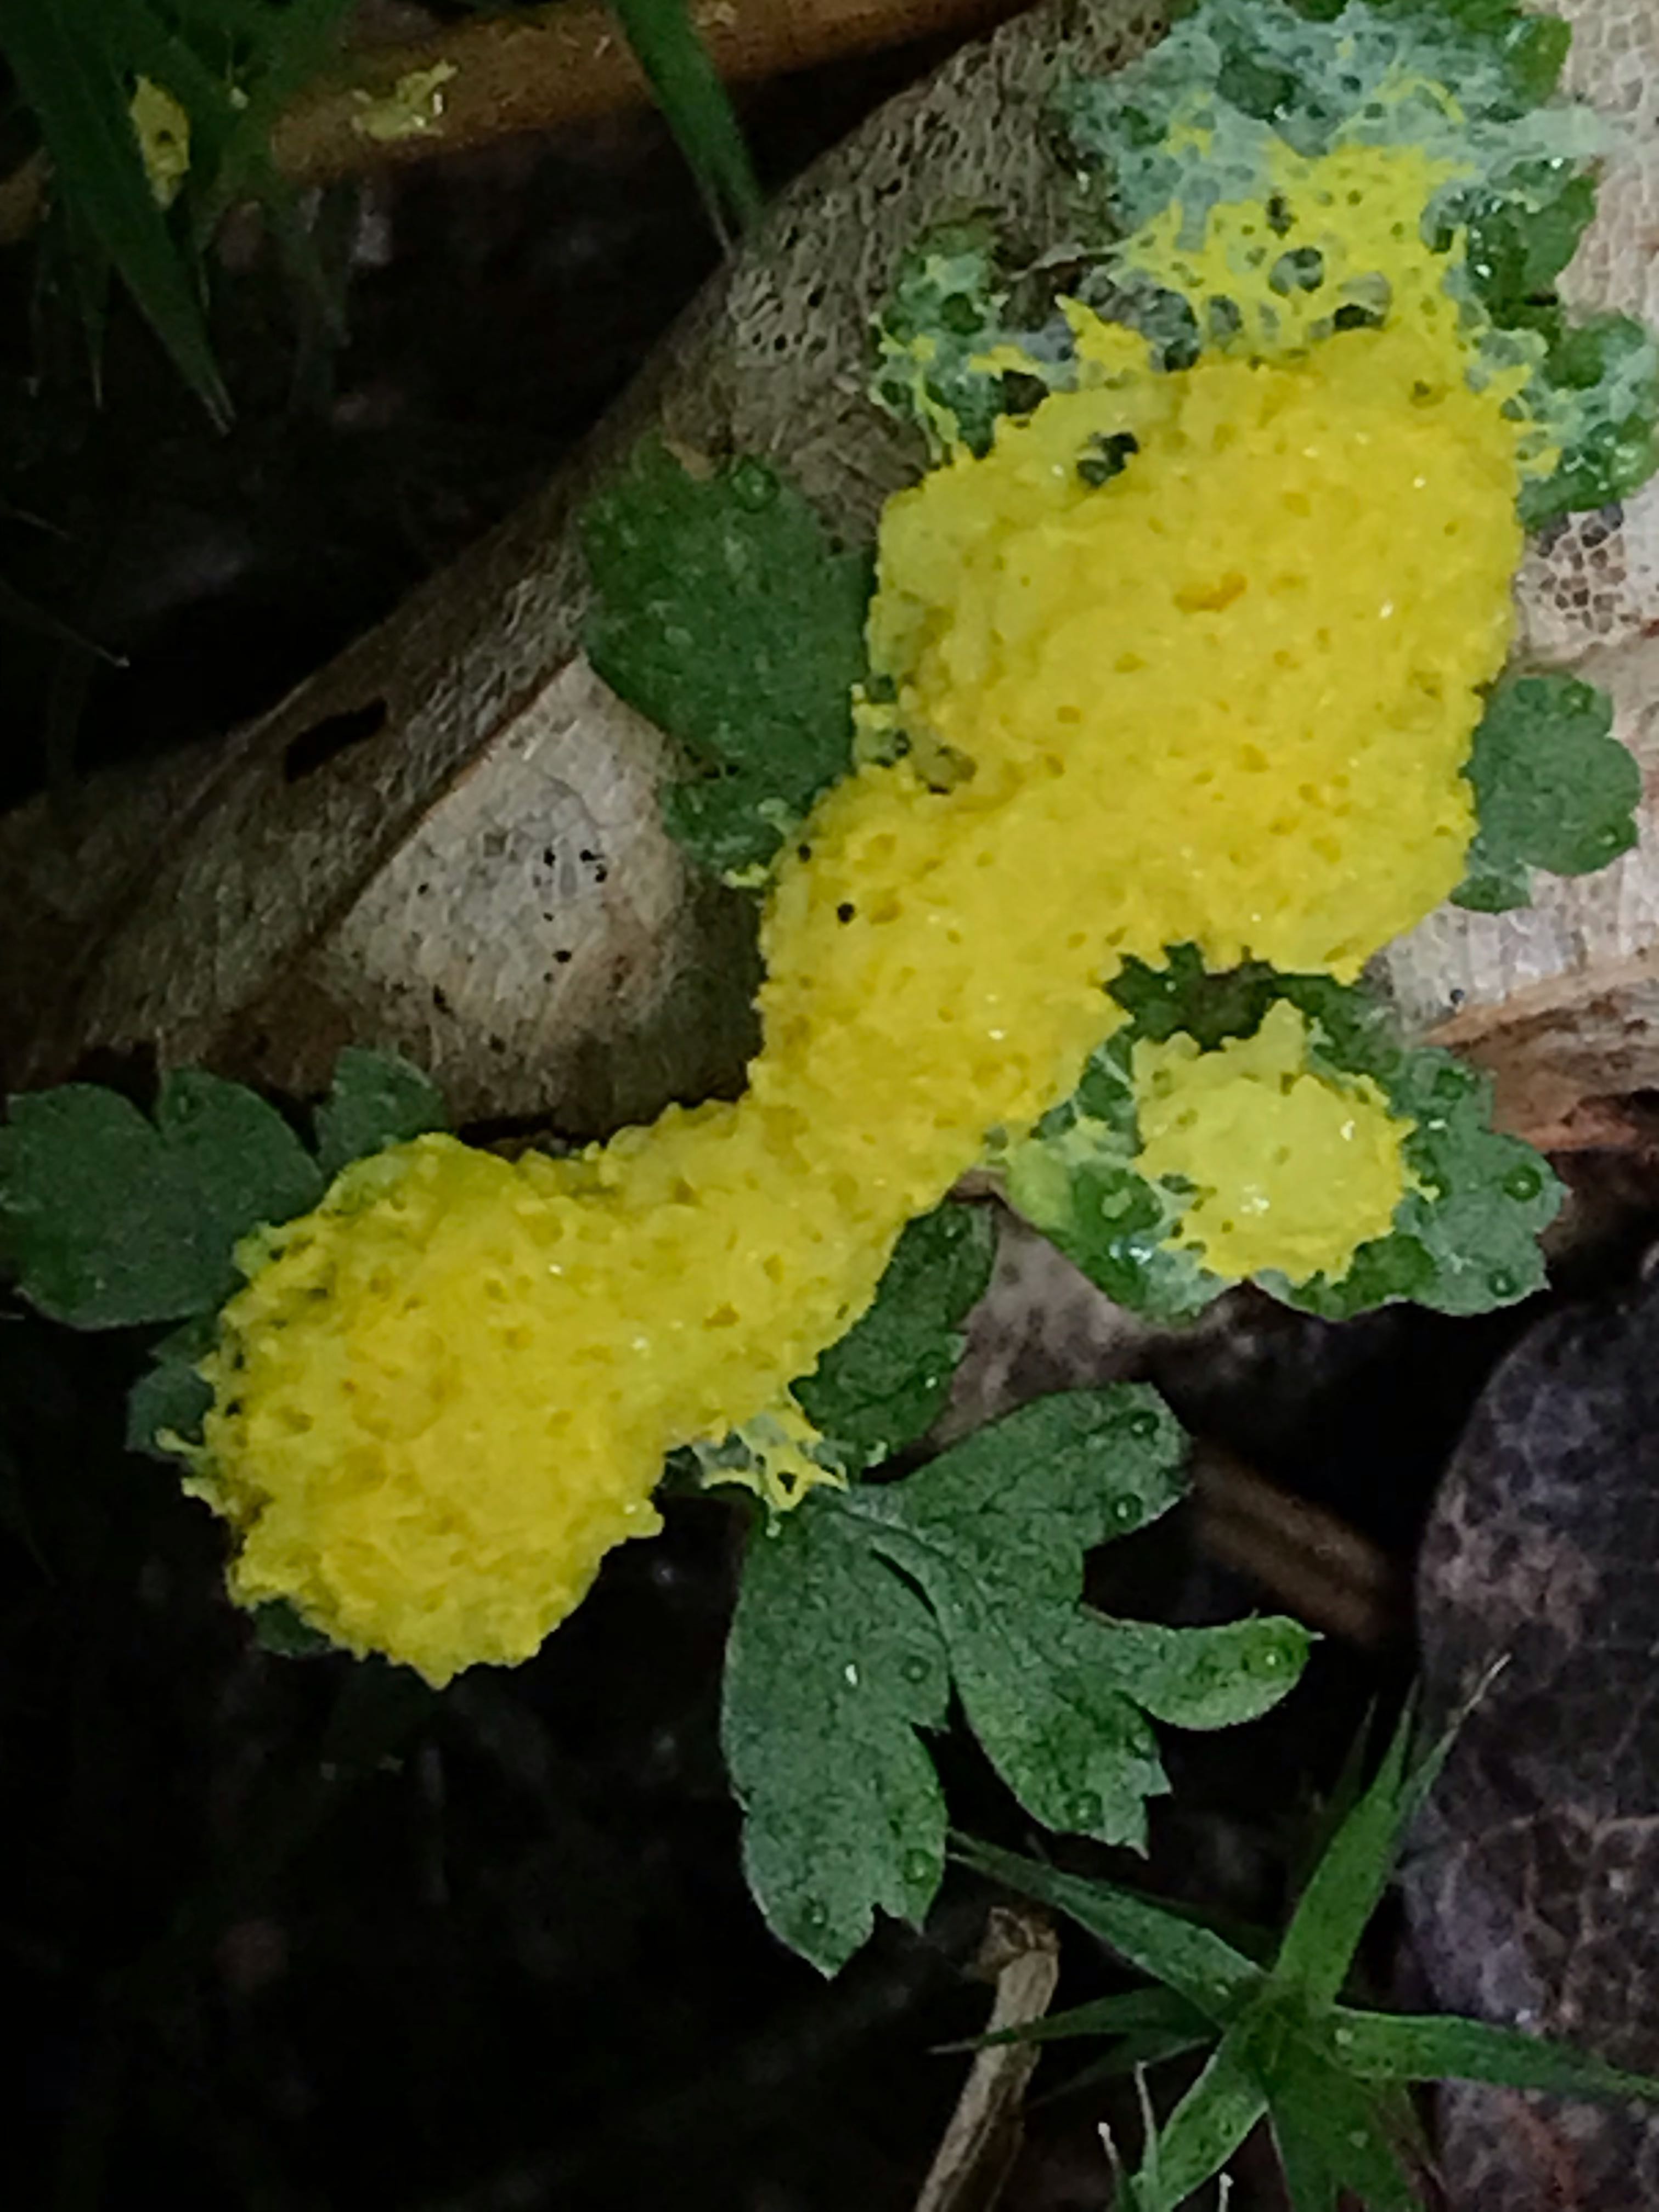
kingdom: Protozoa
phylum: Mycetozoa
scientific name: Mycetozoa
